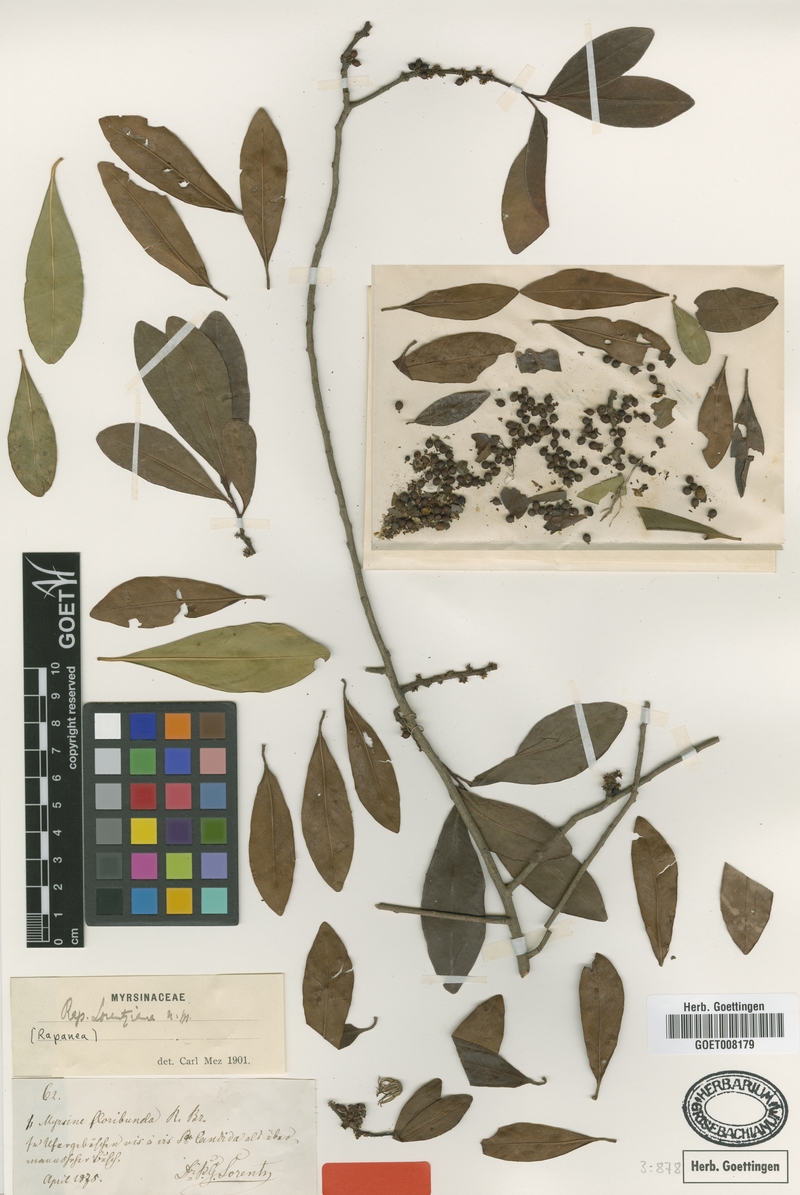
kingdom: Plantae
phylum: Tracheophyta
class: Magnoliopsida
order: Ericales
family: Primulaceae
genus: Myrsine
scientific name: Myrsine lorentziana
